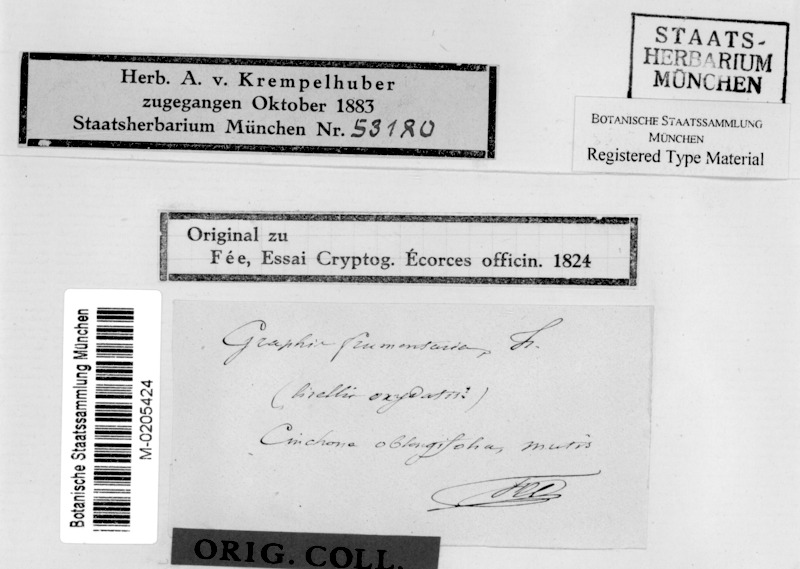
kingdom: Fungi
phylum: Ascomycota
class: Lecanoromycetes
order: Ostropales
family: Graphidaceae
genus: Allographa
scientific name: Allographa frumentaria
